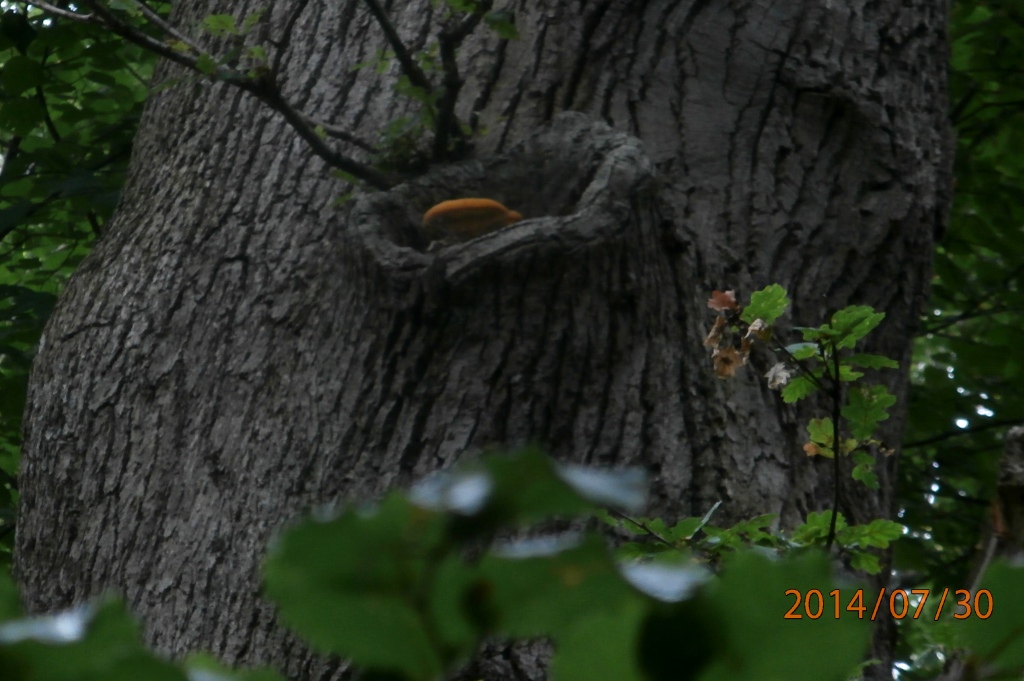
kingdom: Fungi
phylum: Basidiomycota
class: Agaricomycetes
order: Polyporales
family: Phanerochaetaceae
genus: Hapalopilus
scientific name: Hapalopilus croceus
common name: safrangul pragtporesvamp
